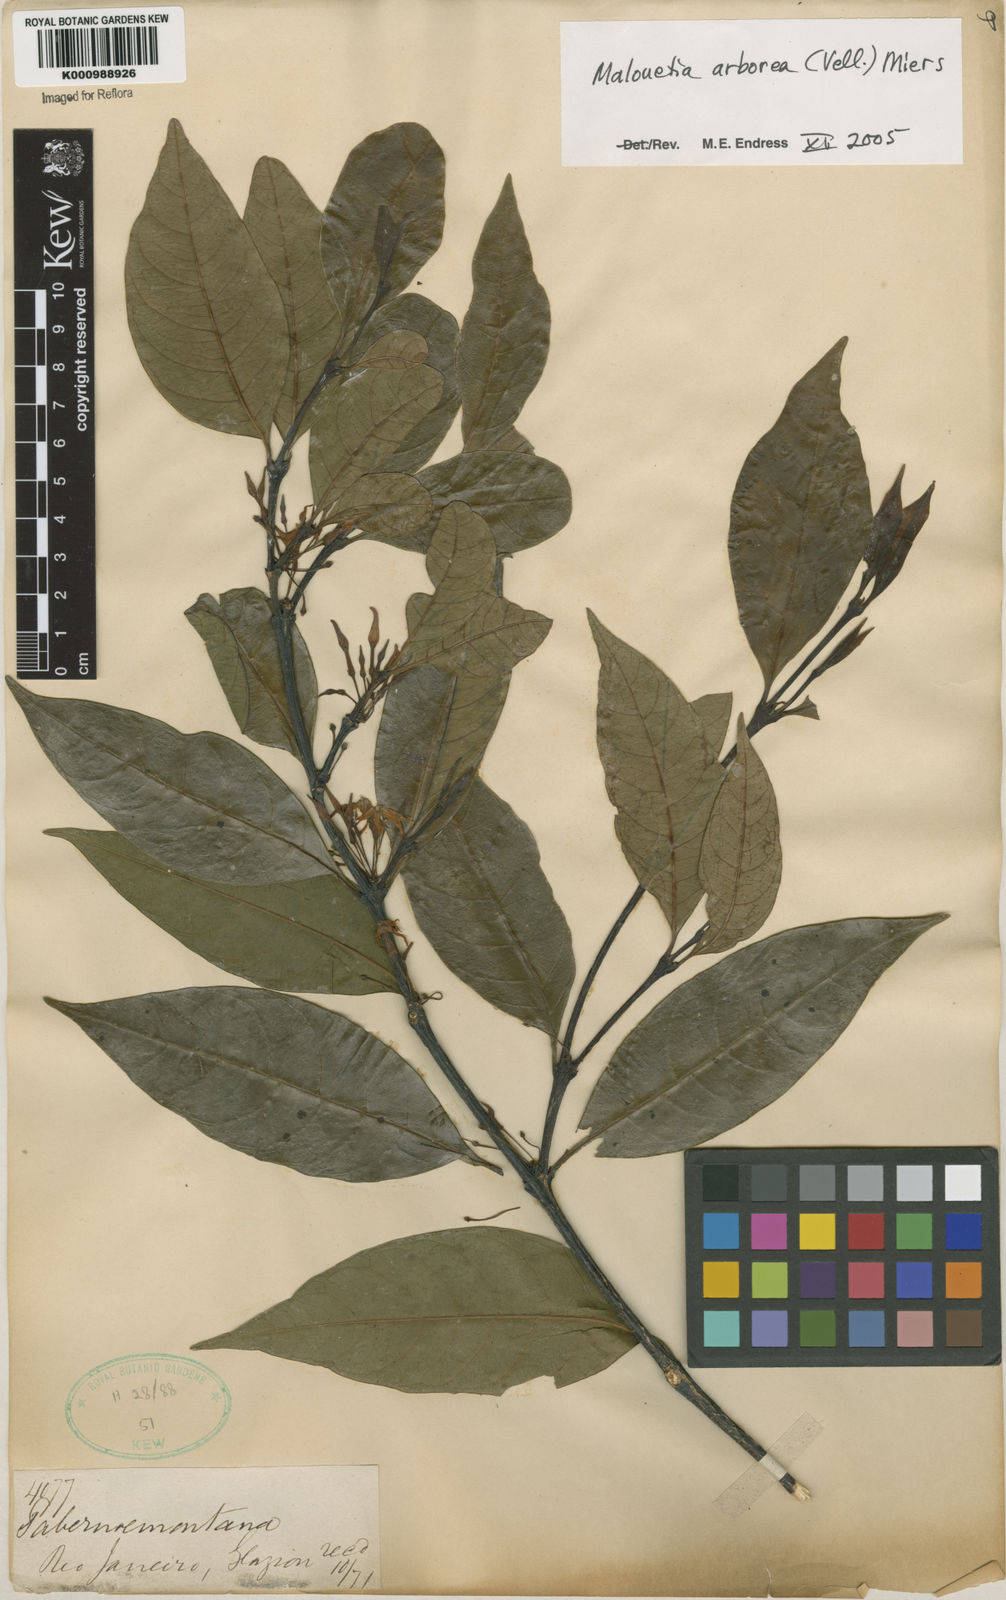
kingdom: Plantae
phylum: Tracheophyta
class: Magnoliopsida
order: Gentianales
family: Apocynaceae
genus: Malouetia
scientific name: Malouetia cestroides
